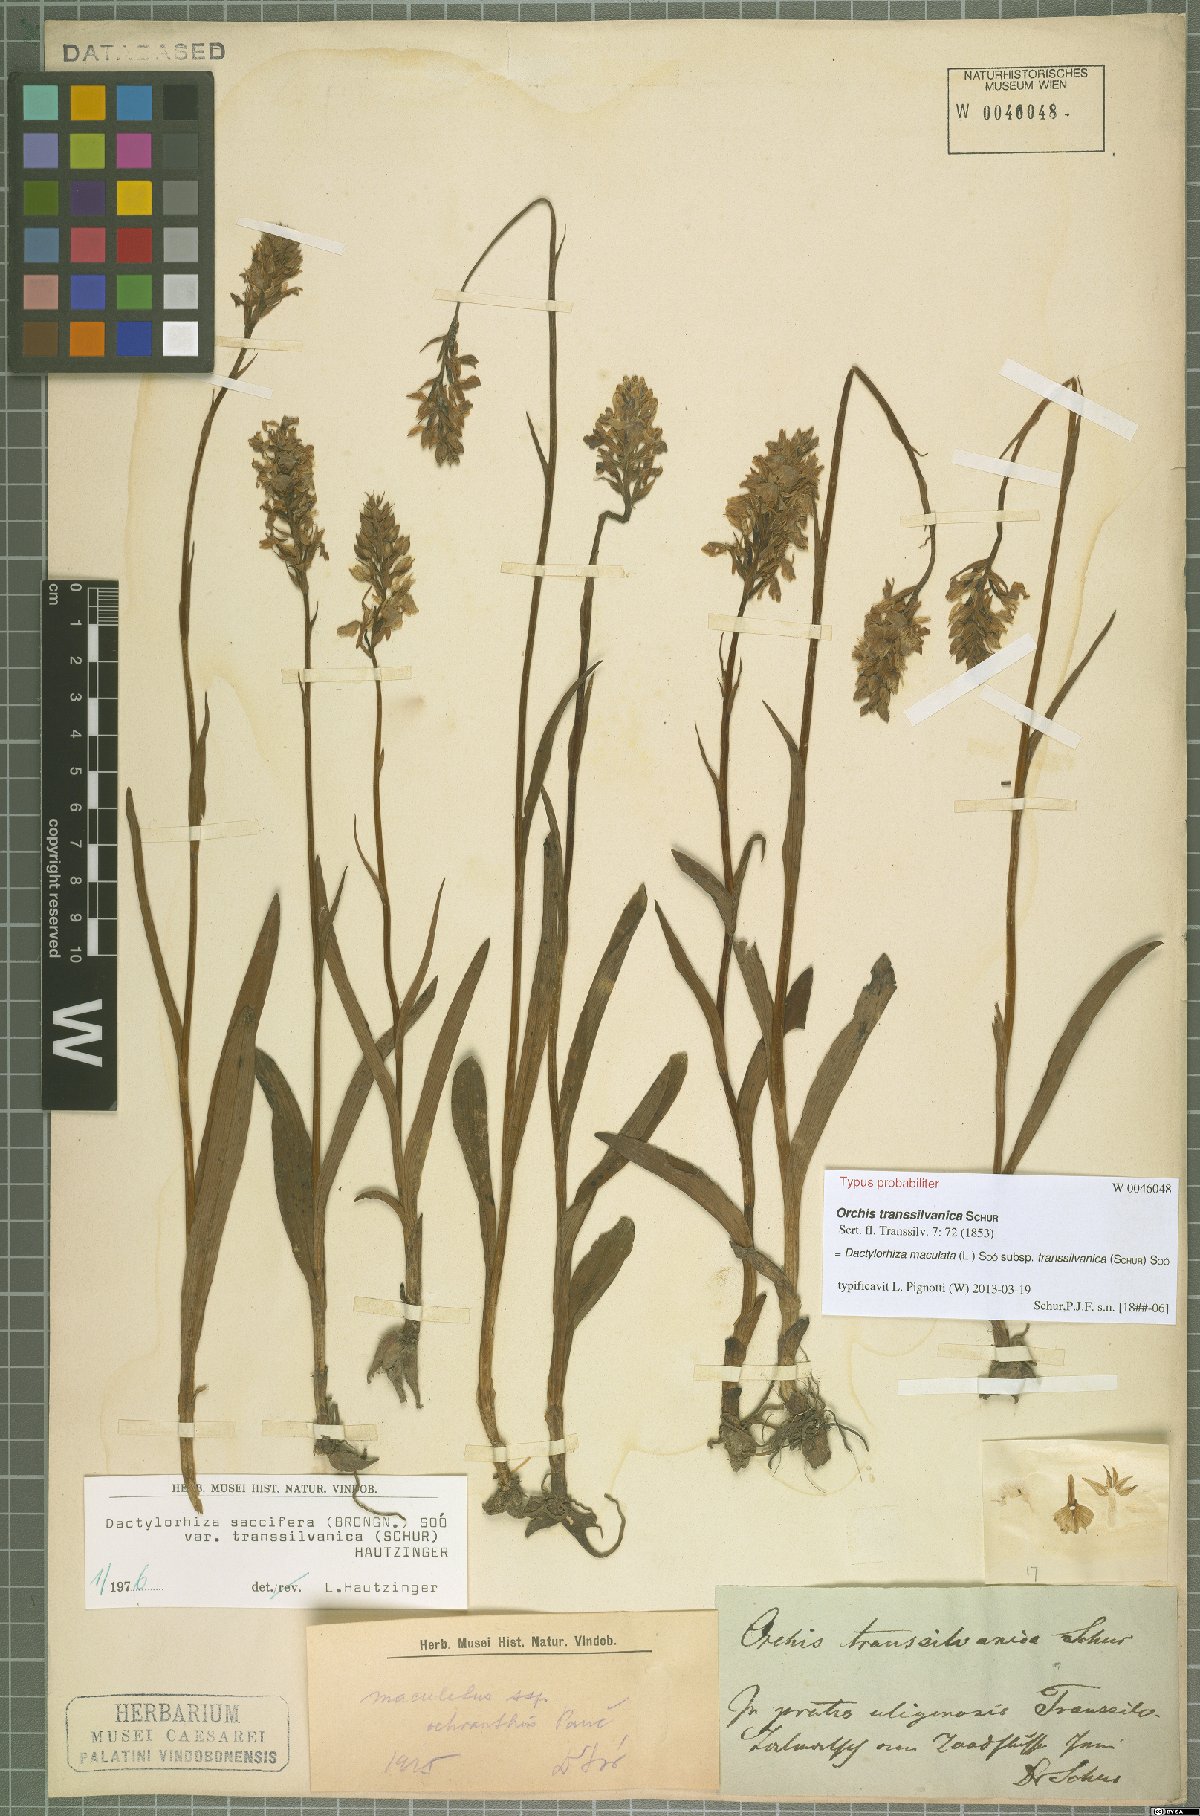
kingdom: Plantae
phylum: Tracheophyta
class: Liliopsida
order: Asparagales
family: Orchidaceae
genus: Dactylorhiza
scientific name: Dactylorhiza maculata
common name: Heath spotted-orchid
